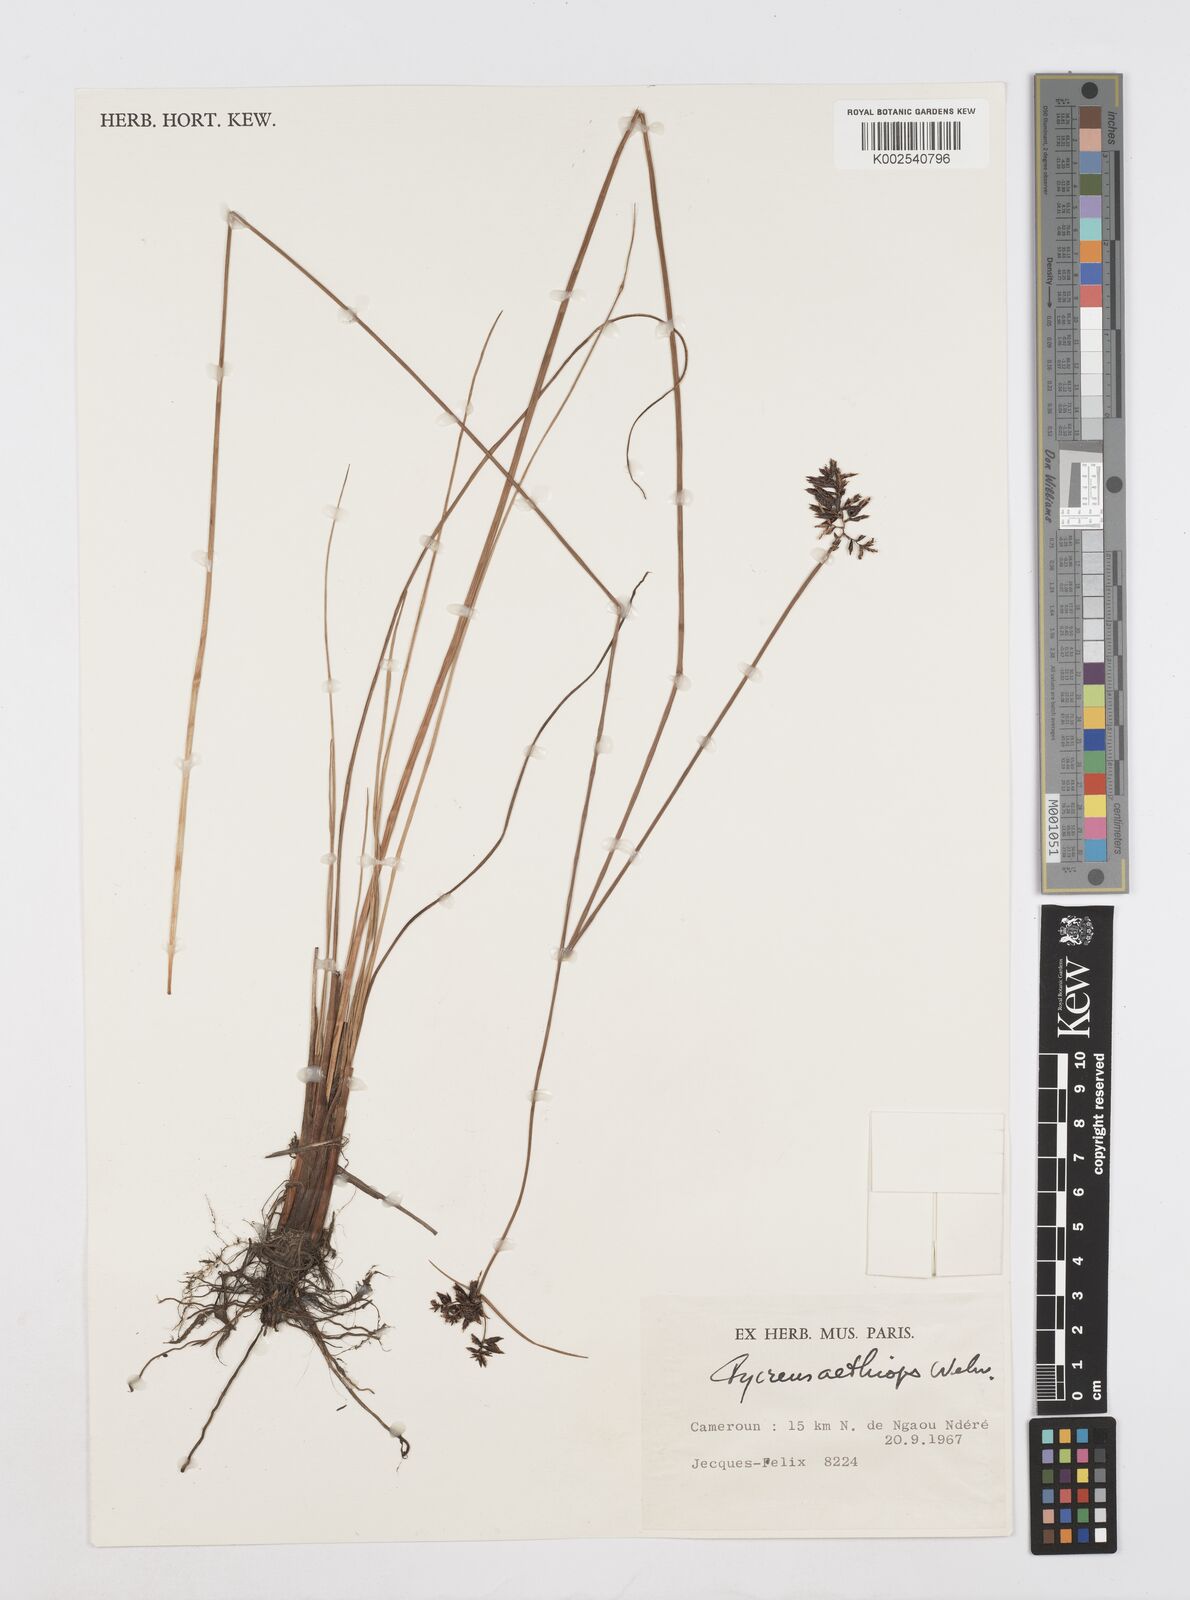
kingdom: Plantae
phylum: Tracheophyta
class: Liliopsida
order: Poales
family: Cyperaceae
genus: Cyperus
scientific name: Cyperus aethiops
